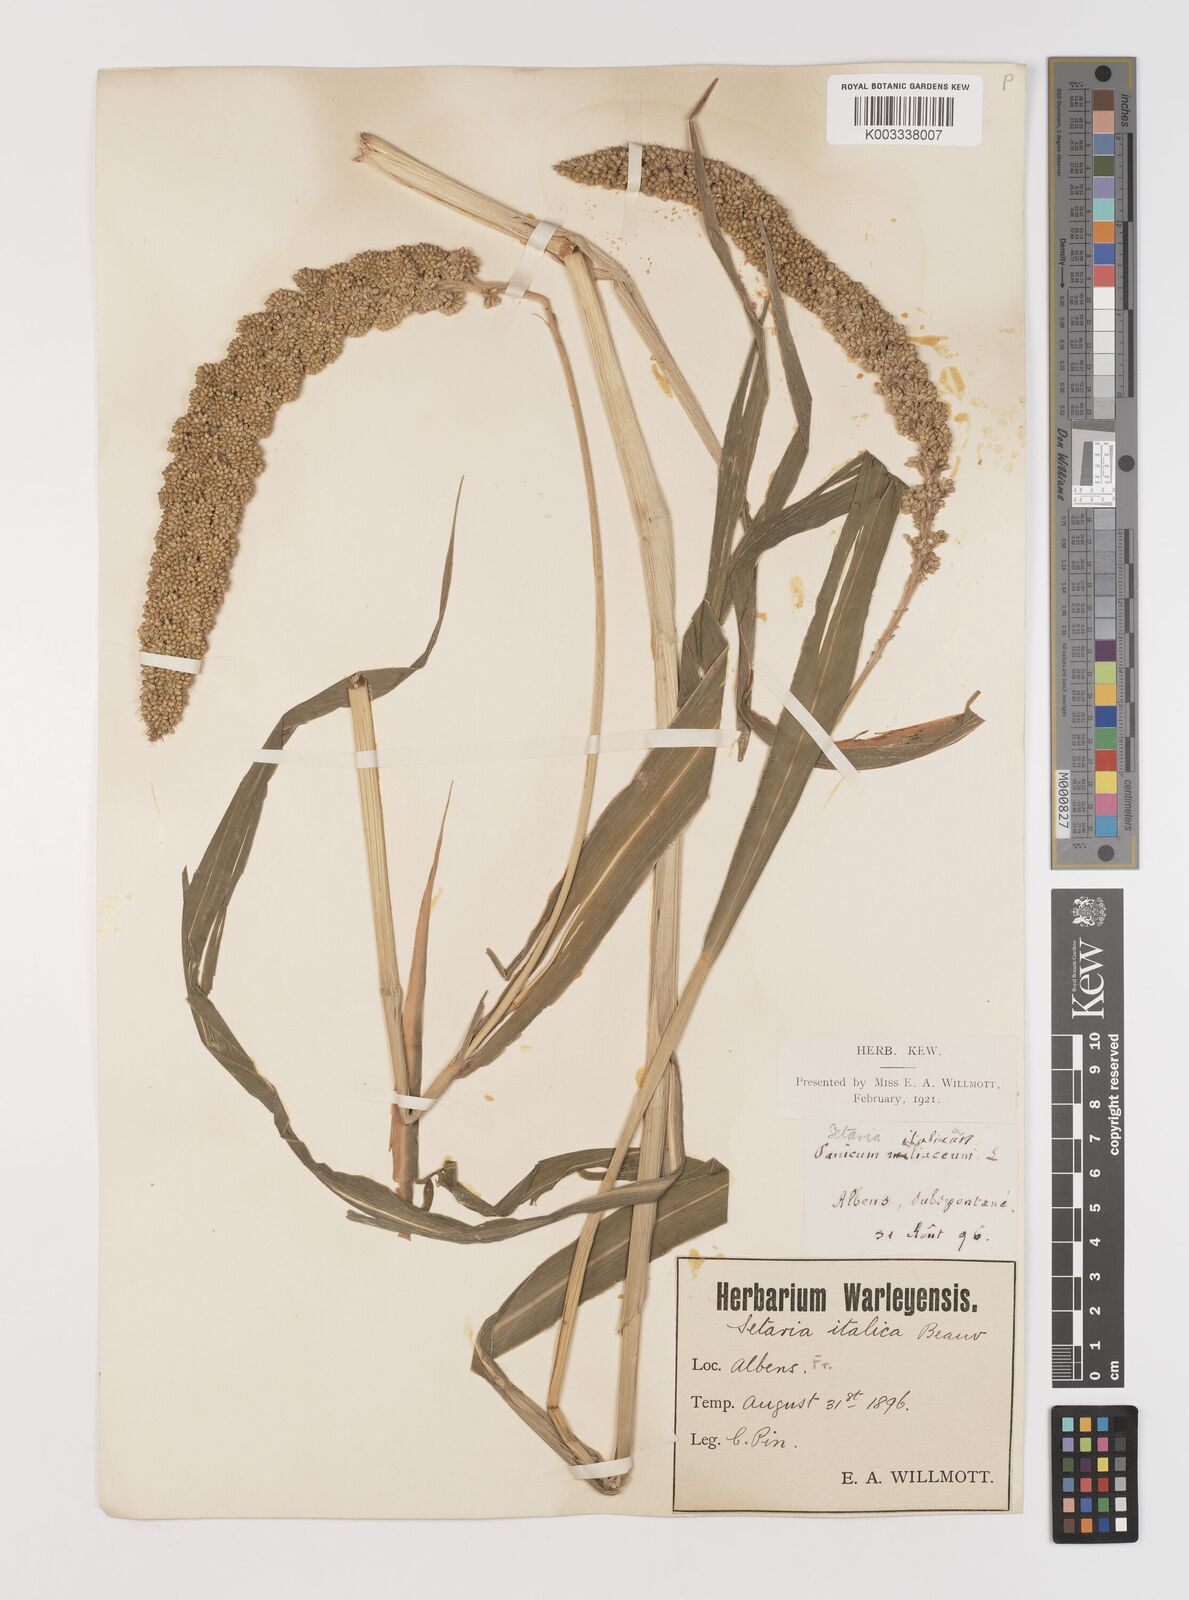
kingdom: Plantae
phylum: Tracheophyta
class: Liliopsida
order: Poales
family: Poaceae
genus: Setaria
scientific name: Setaria italica
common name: Foxtail bristle-grass
